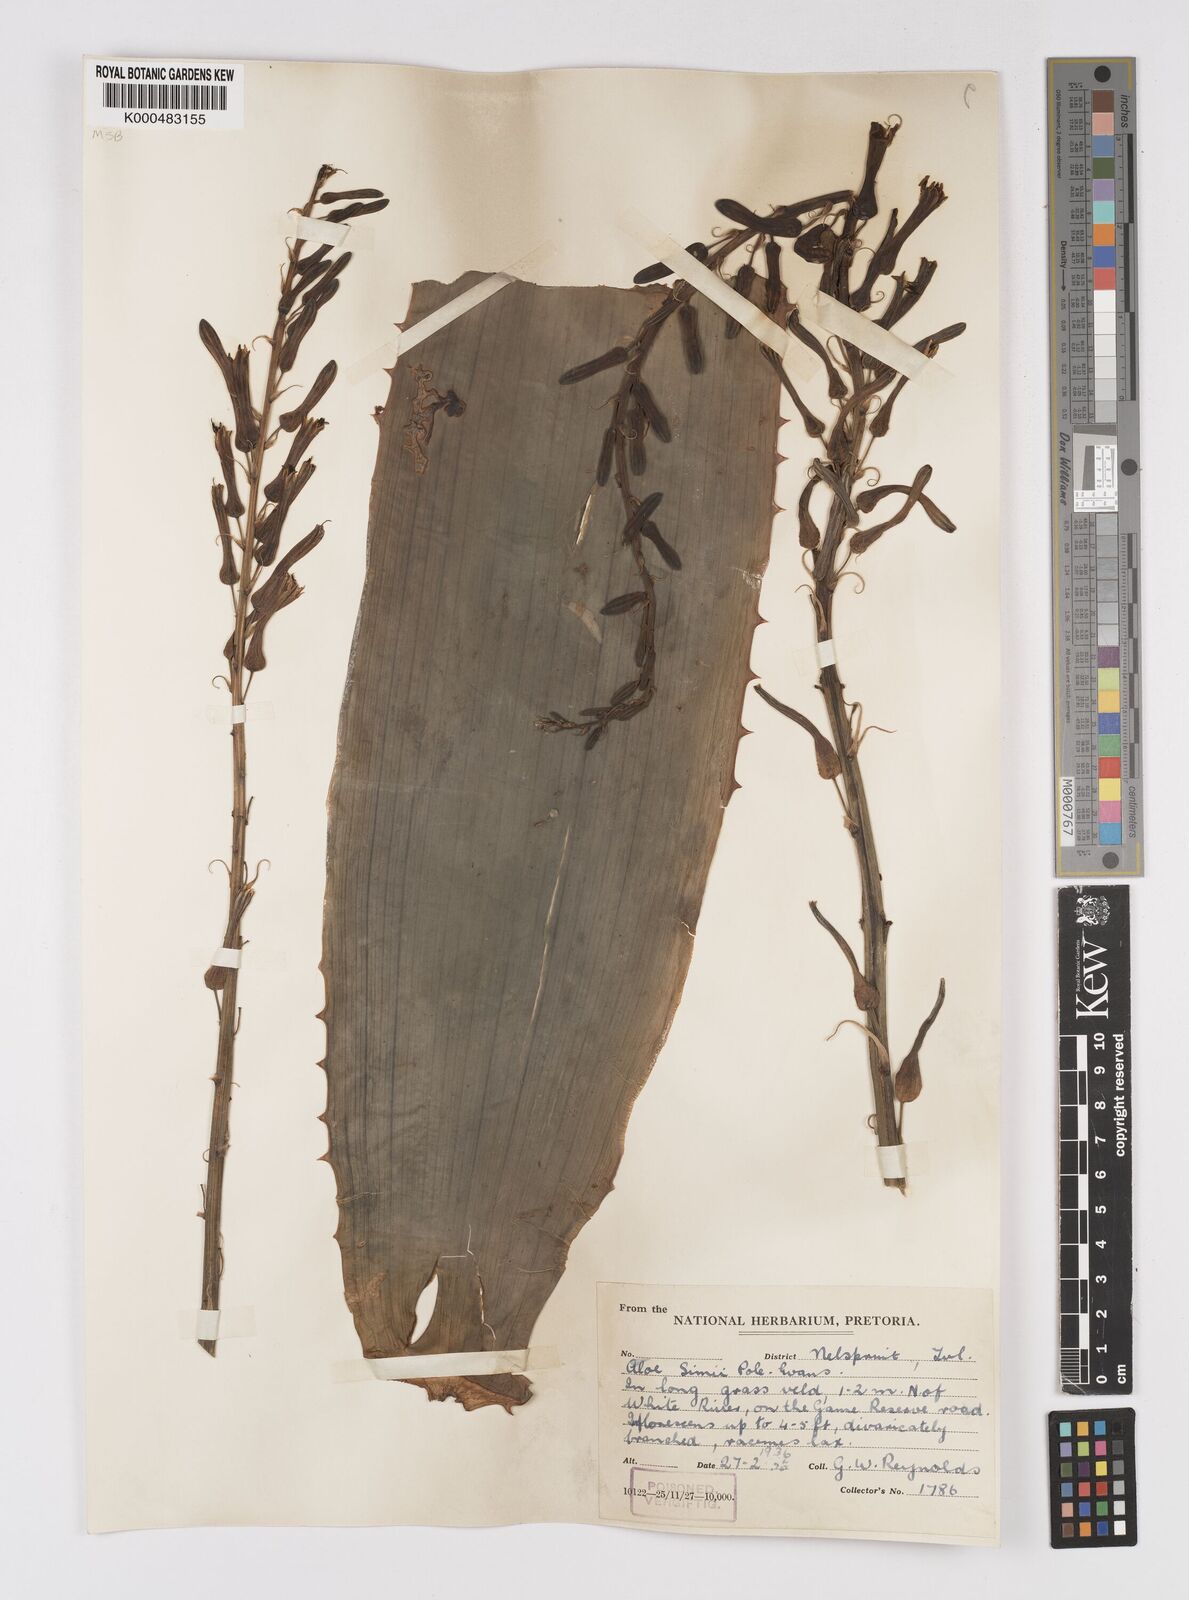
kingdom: Plantae
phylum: Tracheophyta
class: Liliopsida
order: Asparagales
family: Asphodelaceae
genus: Aloe
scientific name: Aloe simii
